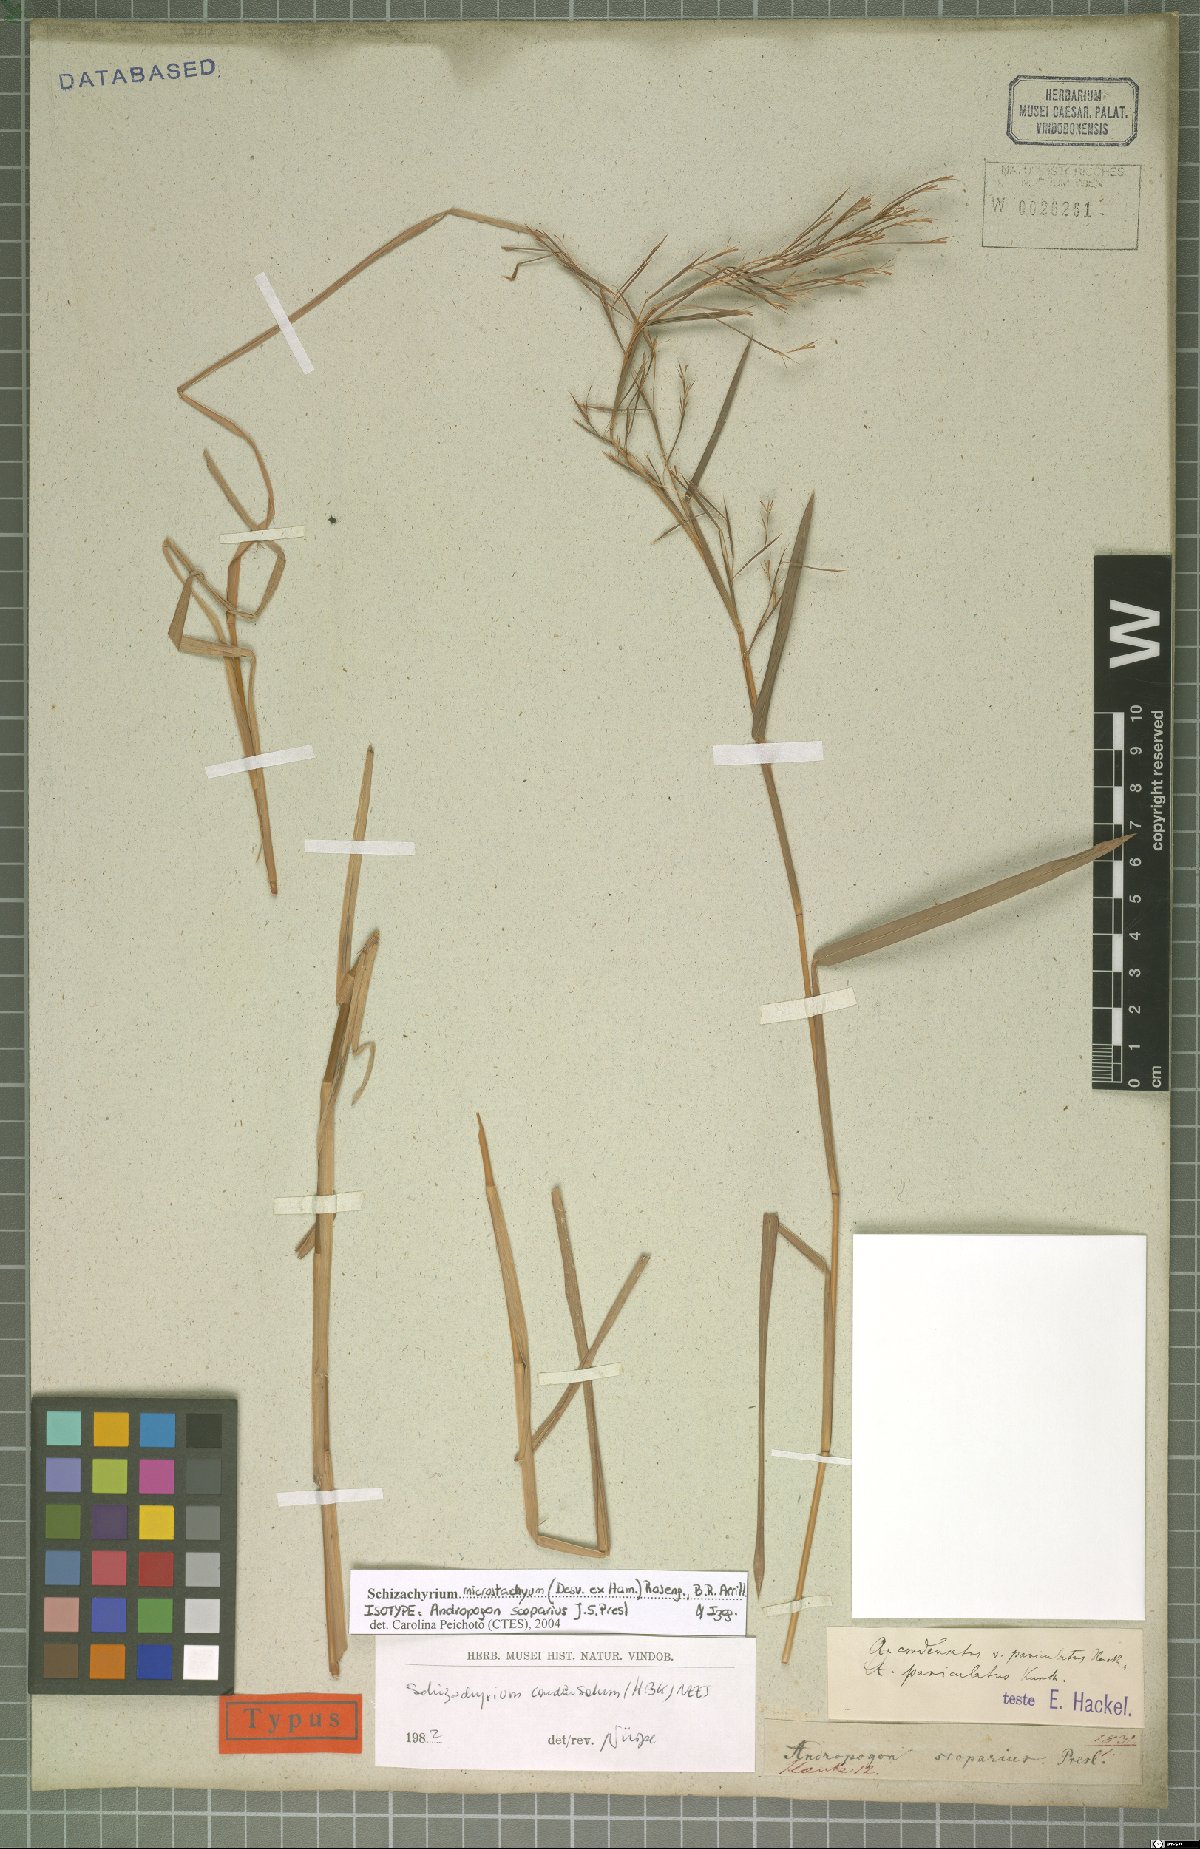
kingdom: Plantae
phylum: Tracheophyta
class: Liliopsida
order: Poales
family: Poaceae
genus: Schizachyrium
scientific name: Schizachyrium microstachyum
